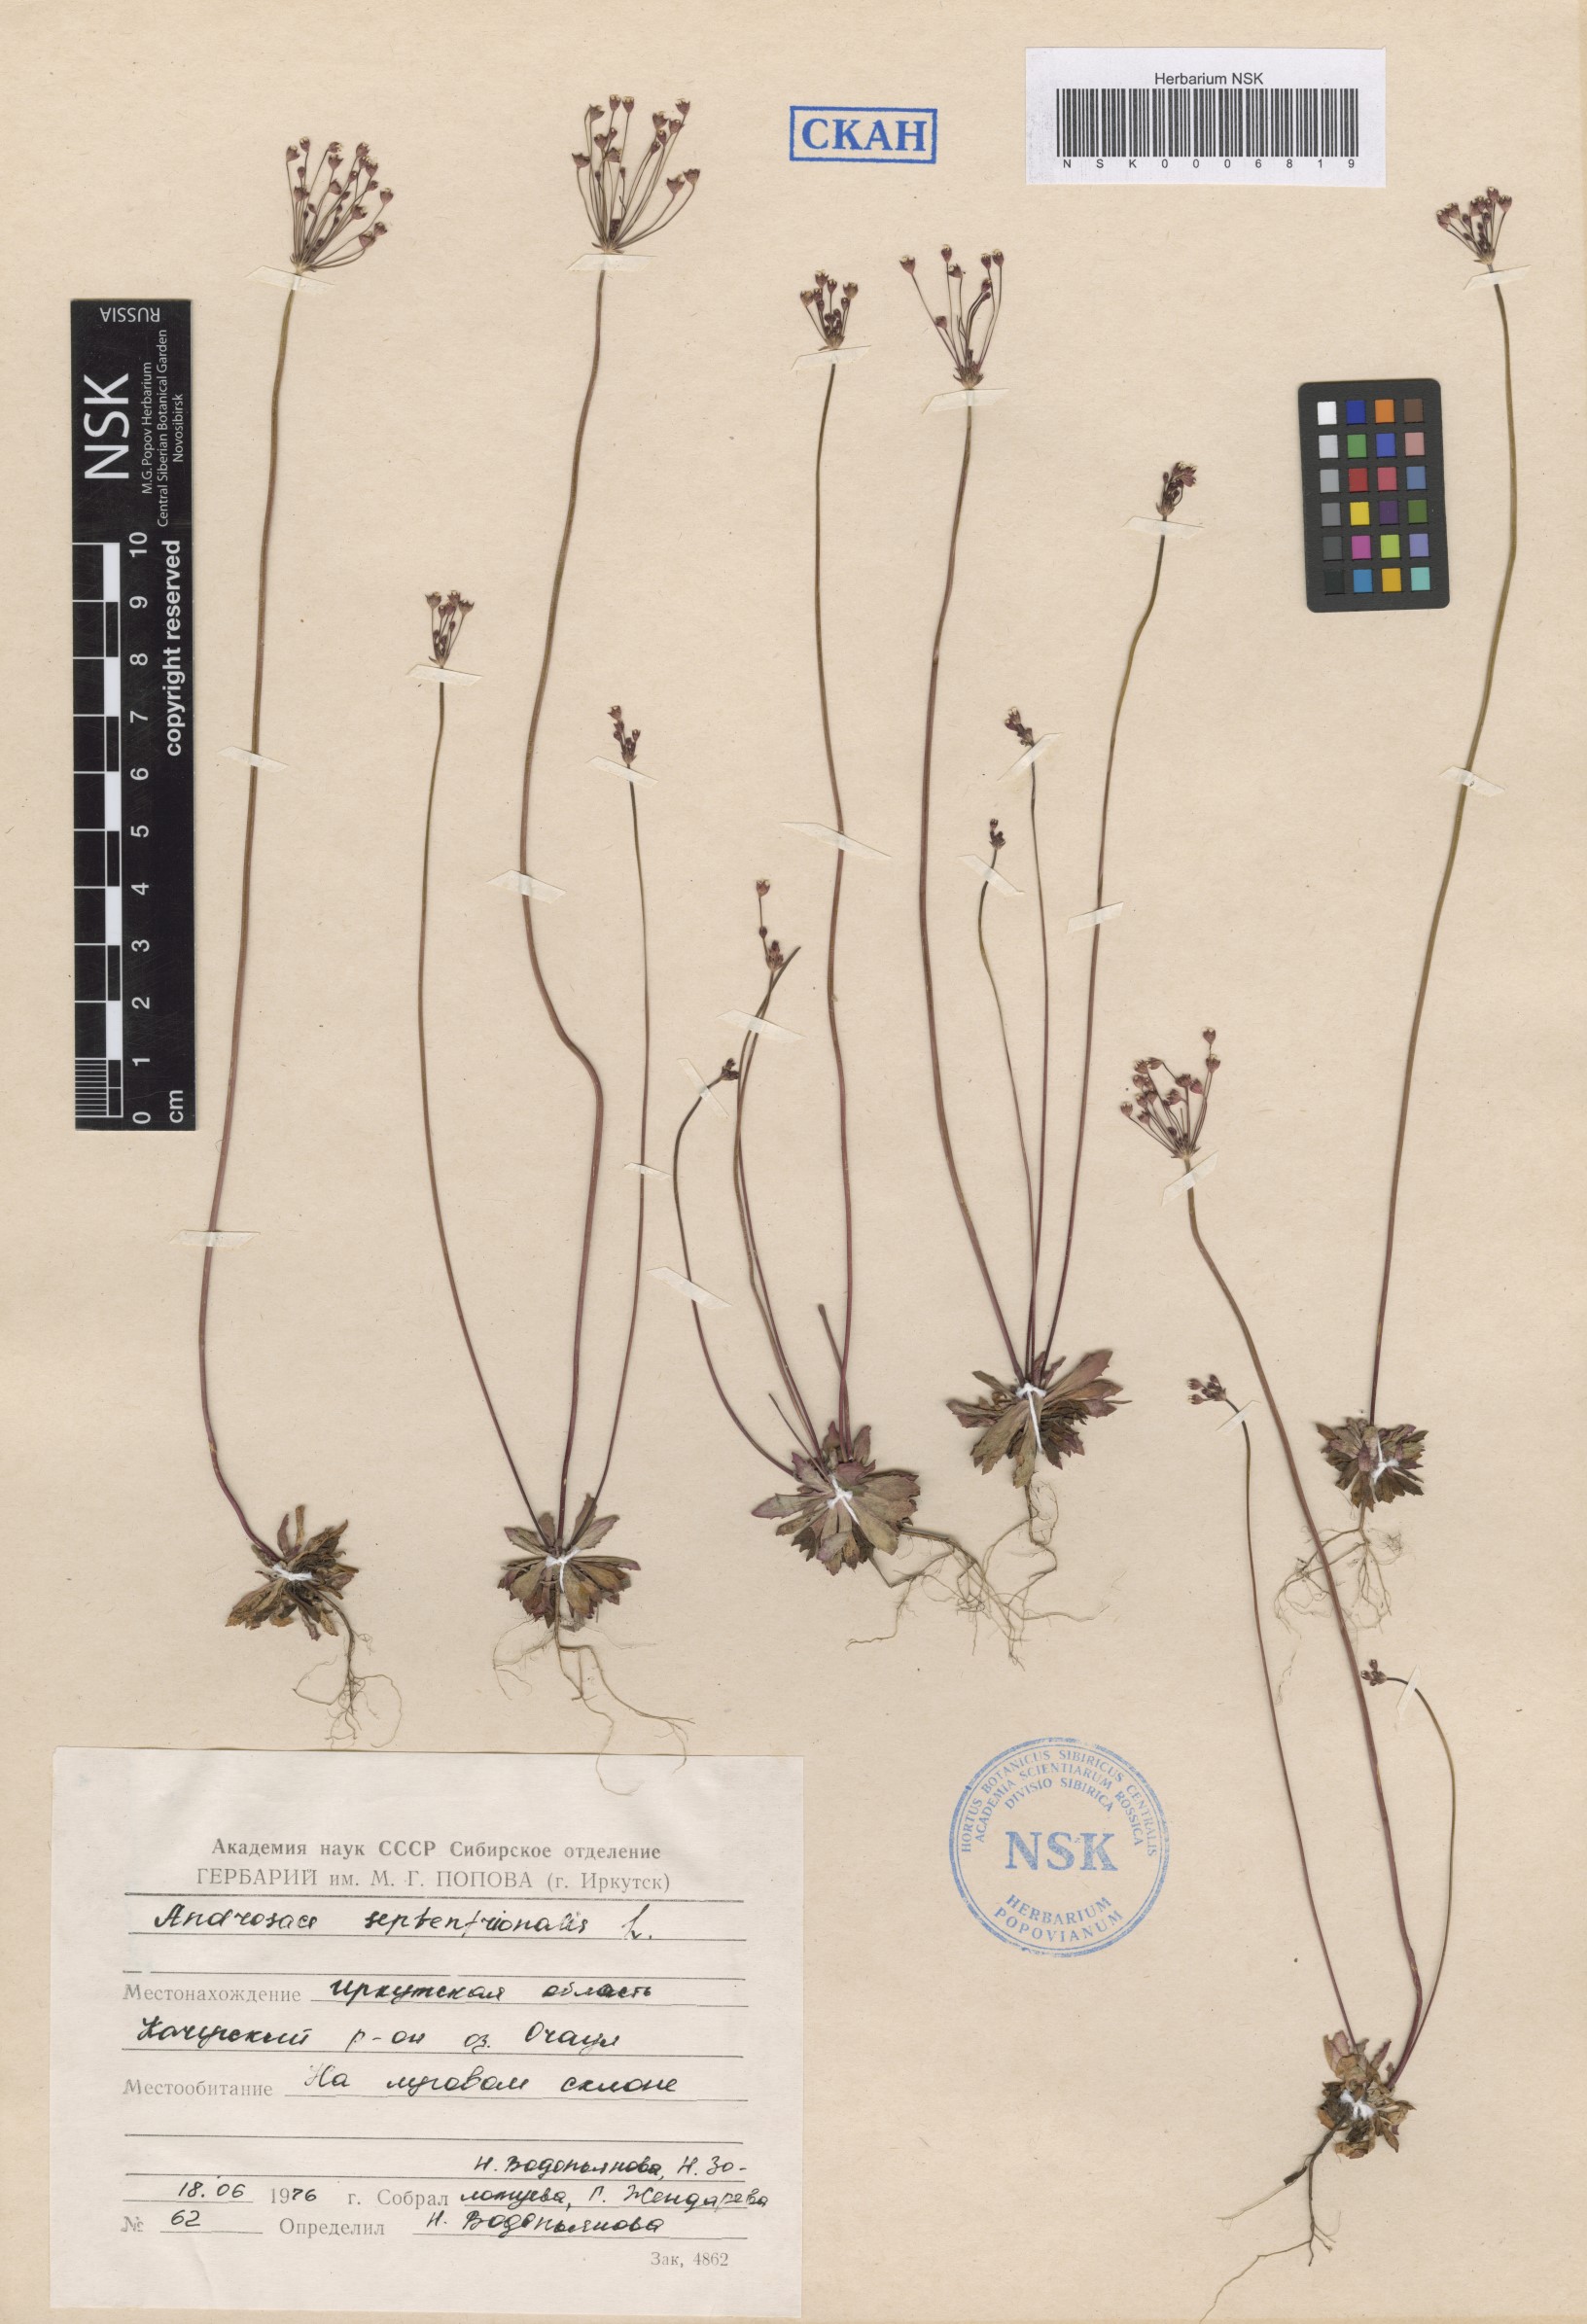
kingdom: Plantae
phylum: Tracheophyta
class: Magnoliopsida
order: Ericales
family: Primulaceae
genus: Androsace
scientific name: Androsace septentrionalis
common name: Hairy northern fairy-candelabra
